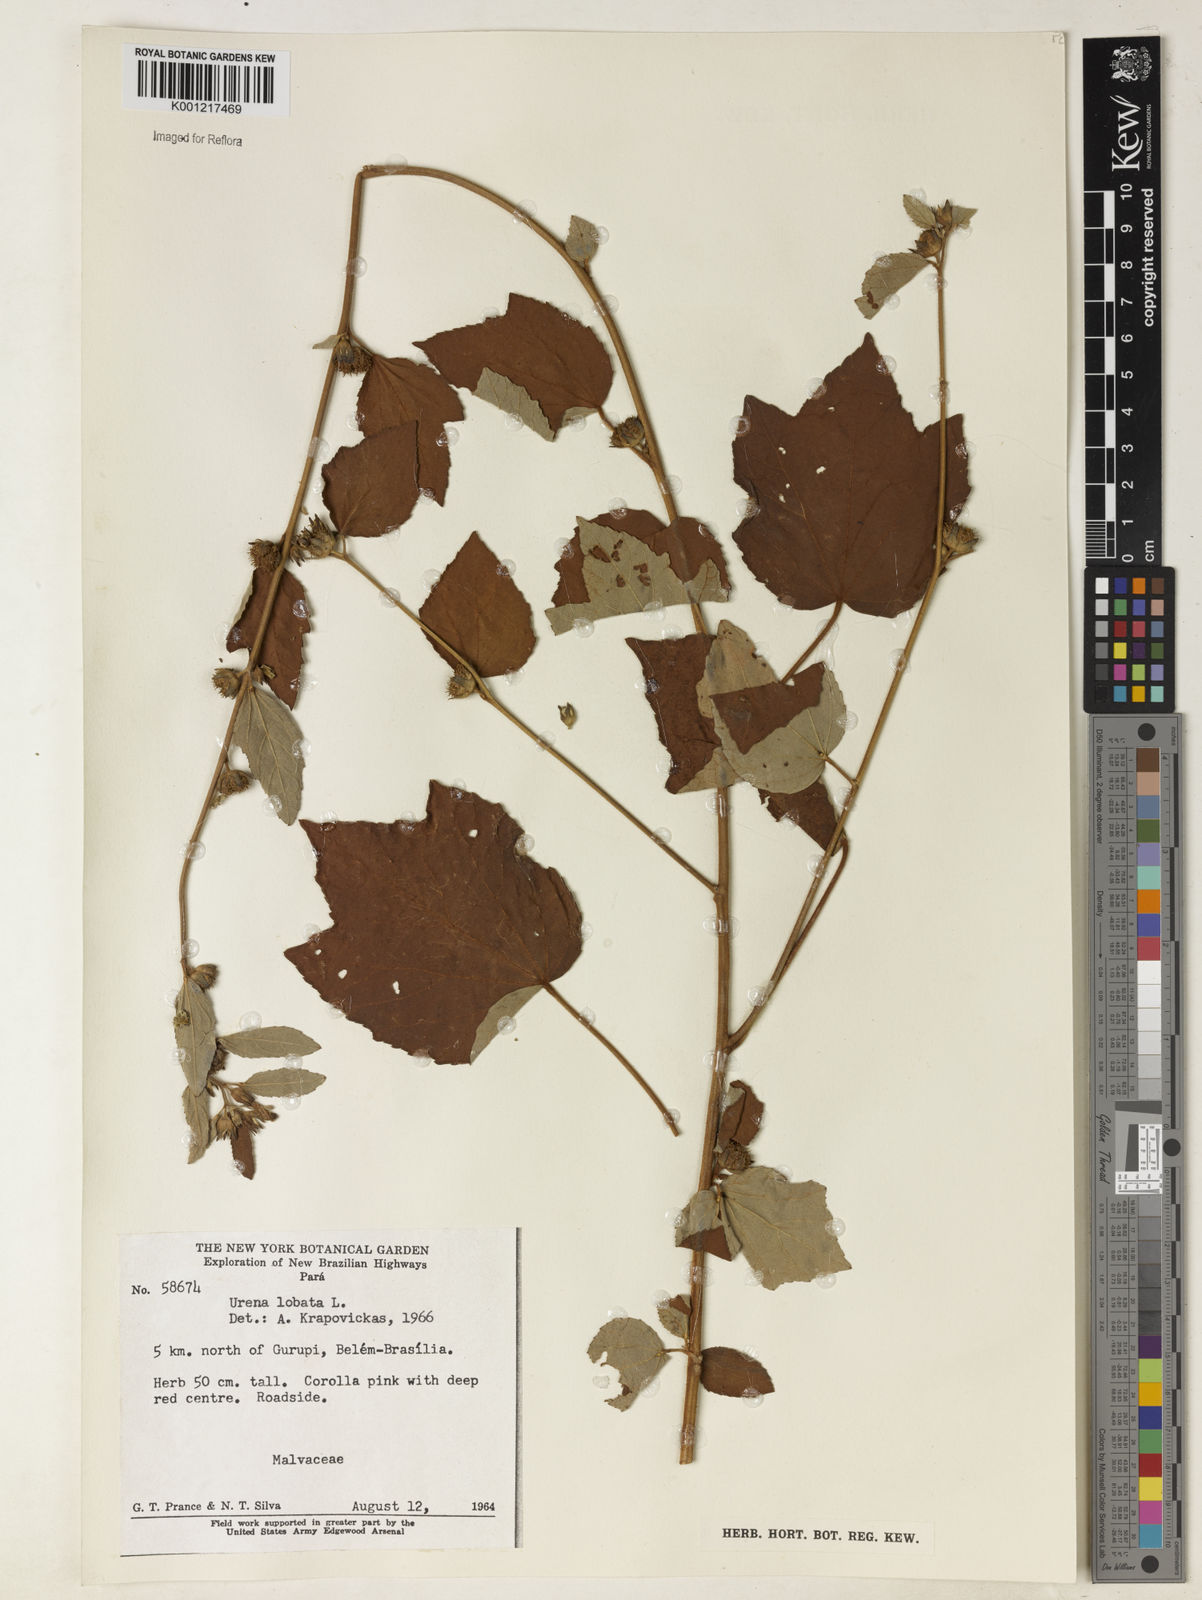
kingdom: Plantae
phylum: Tracheophyta
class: Magnoliopsida
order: Malvales
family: Malvaceae
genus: Urena
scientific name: Urena lobata
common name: Caesarweed
